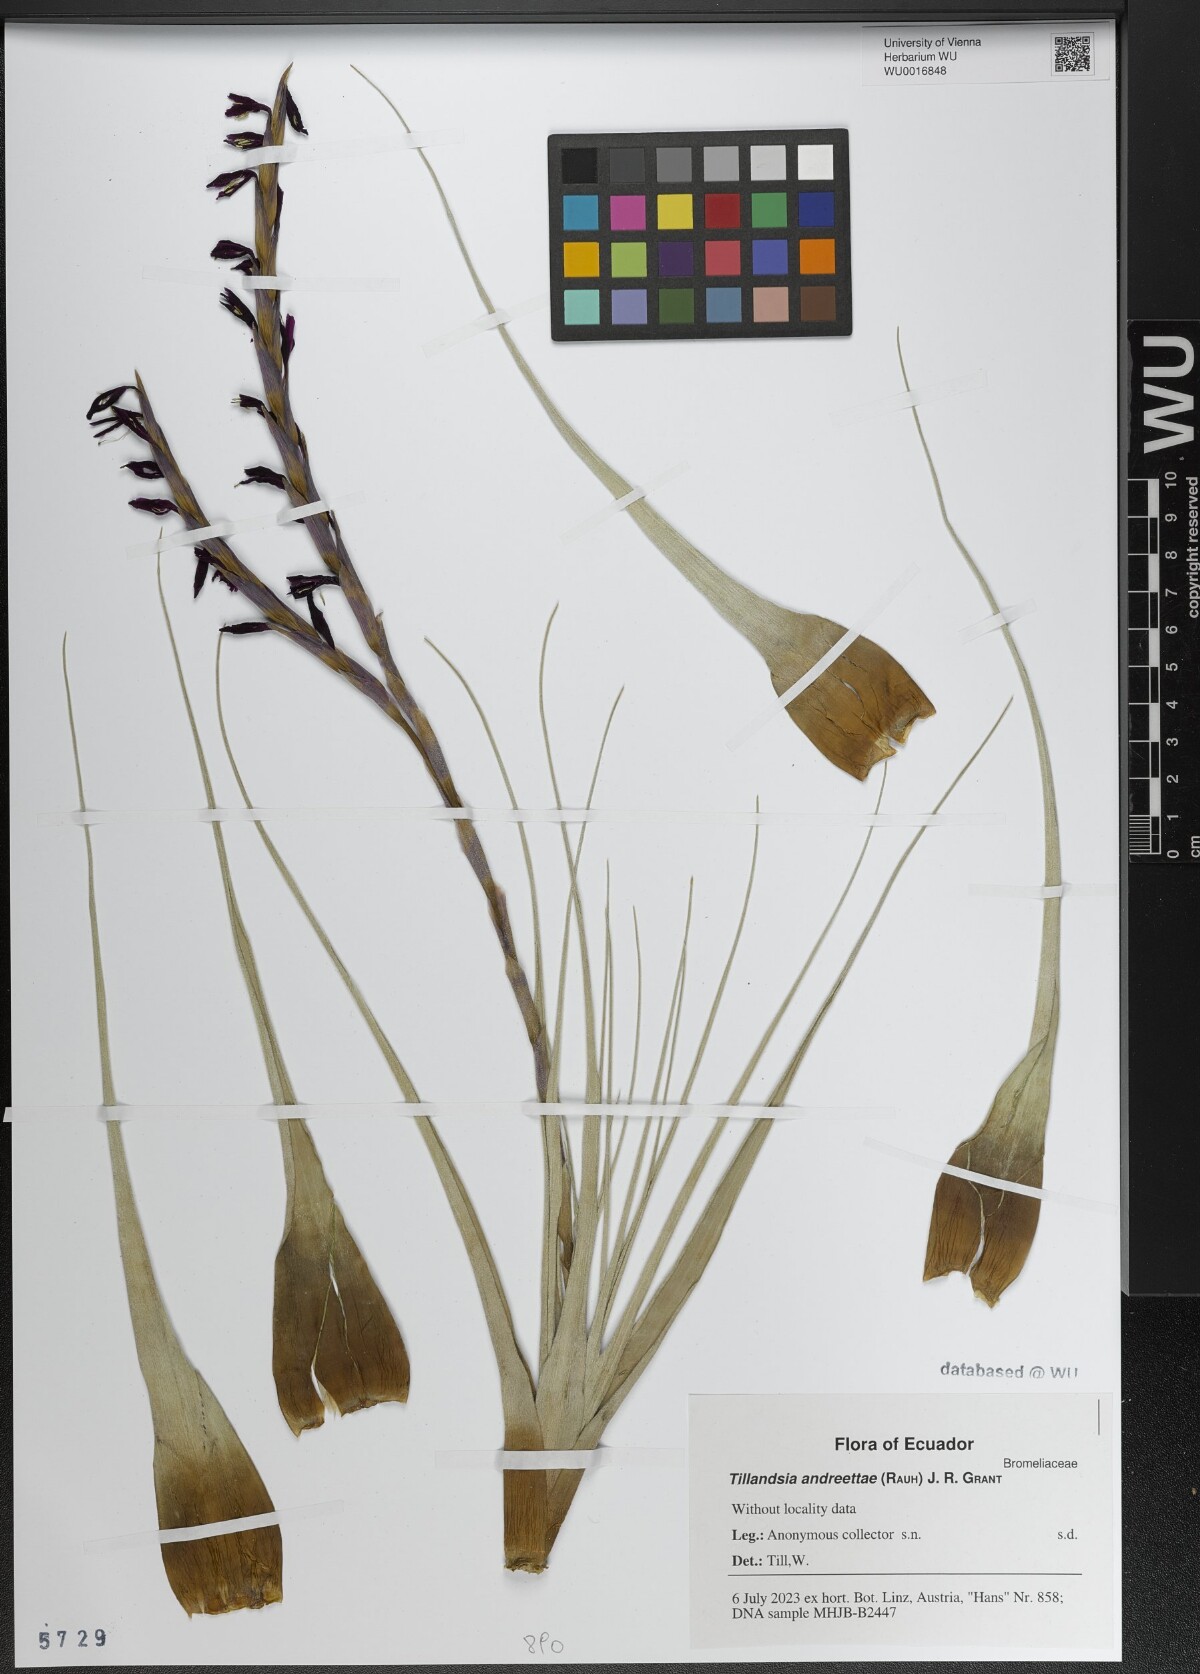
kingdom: Plantae
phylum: Tracheophyta
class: Liliopsida
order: Poales
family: Bromeliaceae
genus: Vriesea
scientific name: Vriesea andreettae
